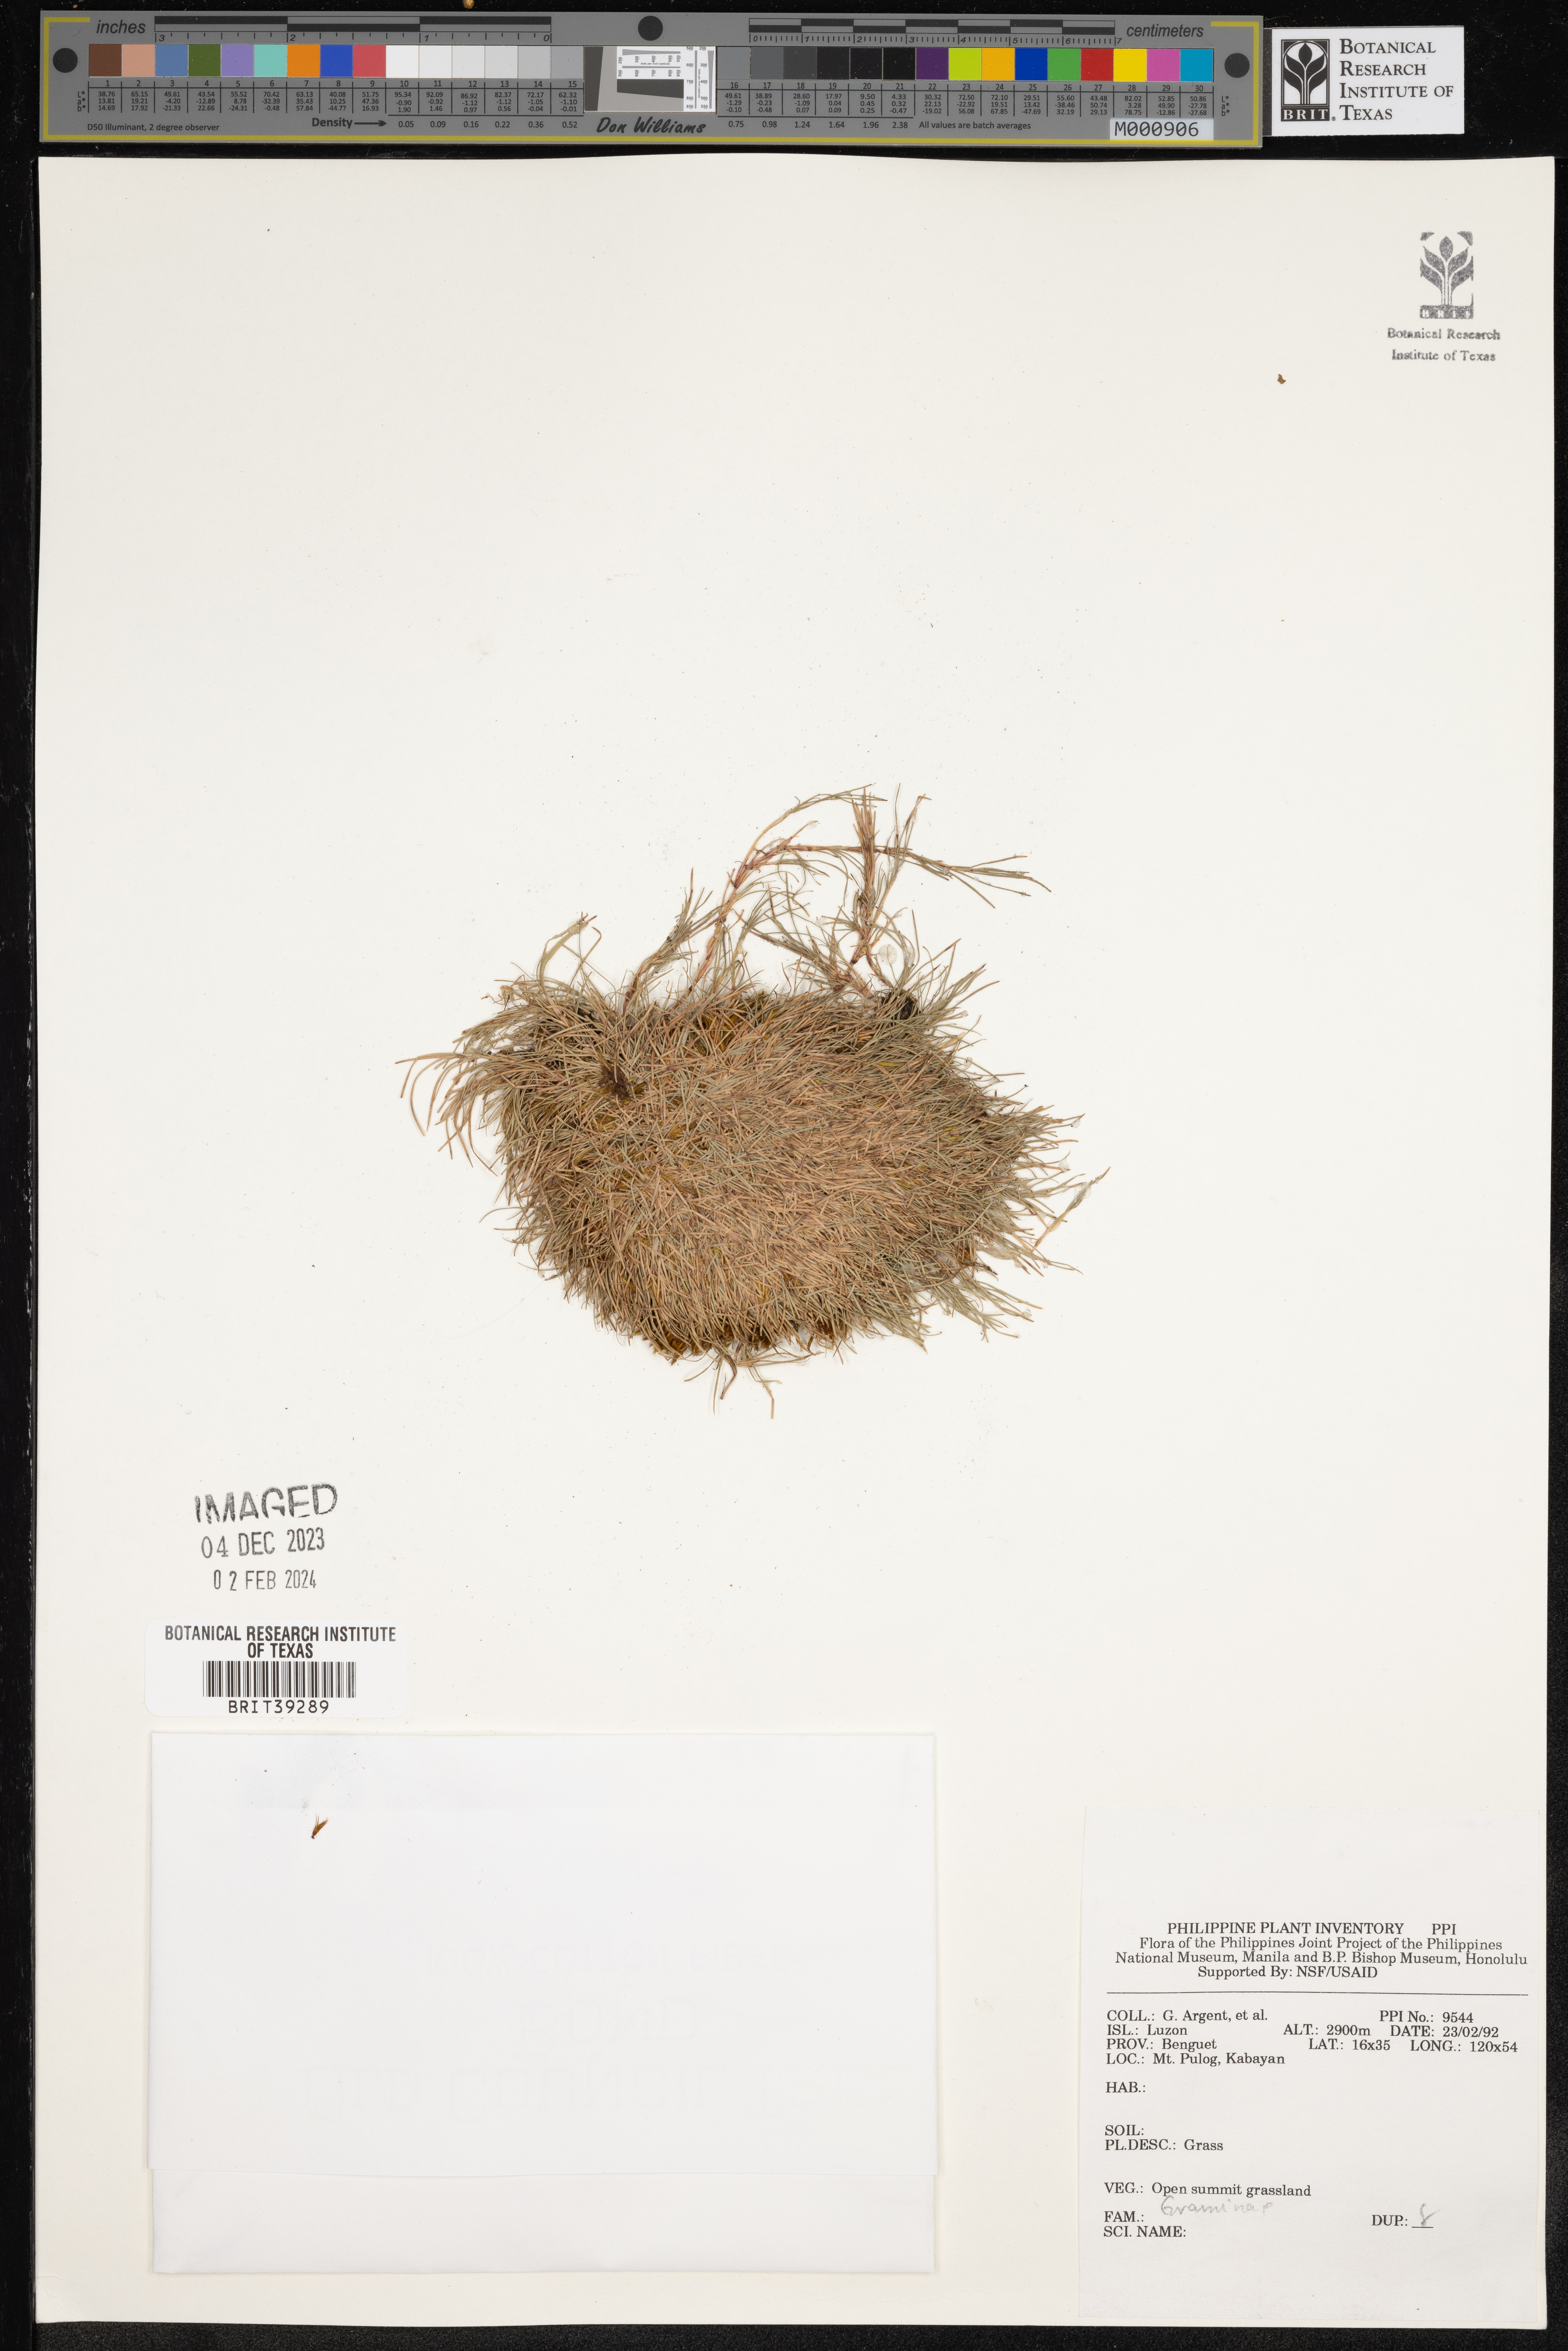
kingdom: Plantae
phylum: Tracheophyta
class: Liliopsida
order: Poales
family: Poaceae
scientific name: Poaceae
